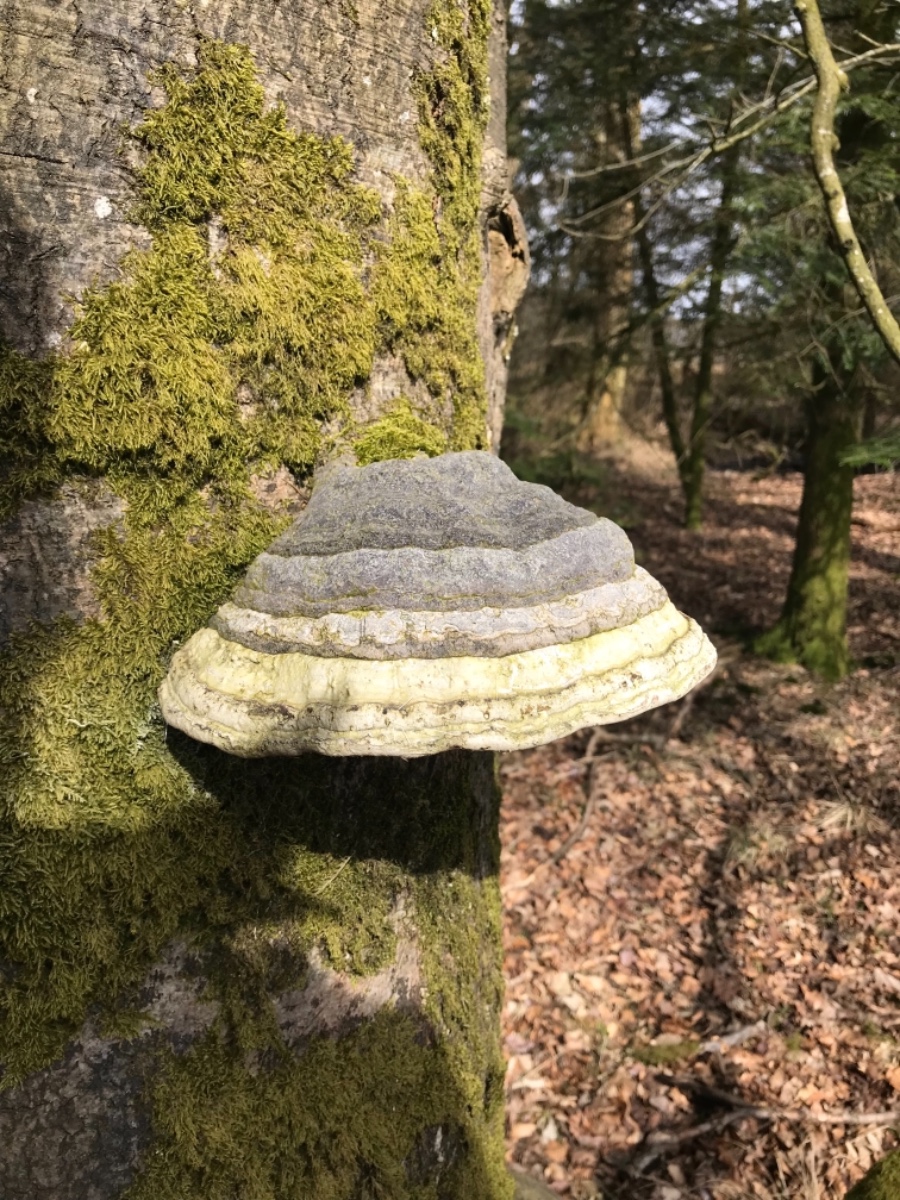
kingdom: Fungi
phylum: Basidiomycota
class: Agaricomycetes
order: Polyporales
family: Polyporaceae
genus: Fomes
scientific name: Fomes fomentarius
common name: tøndersvamp
